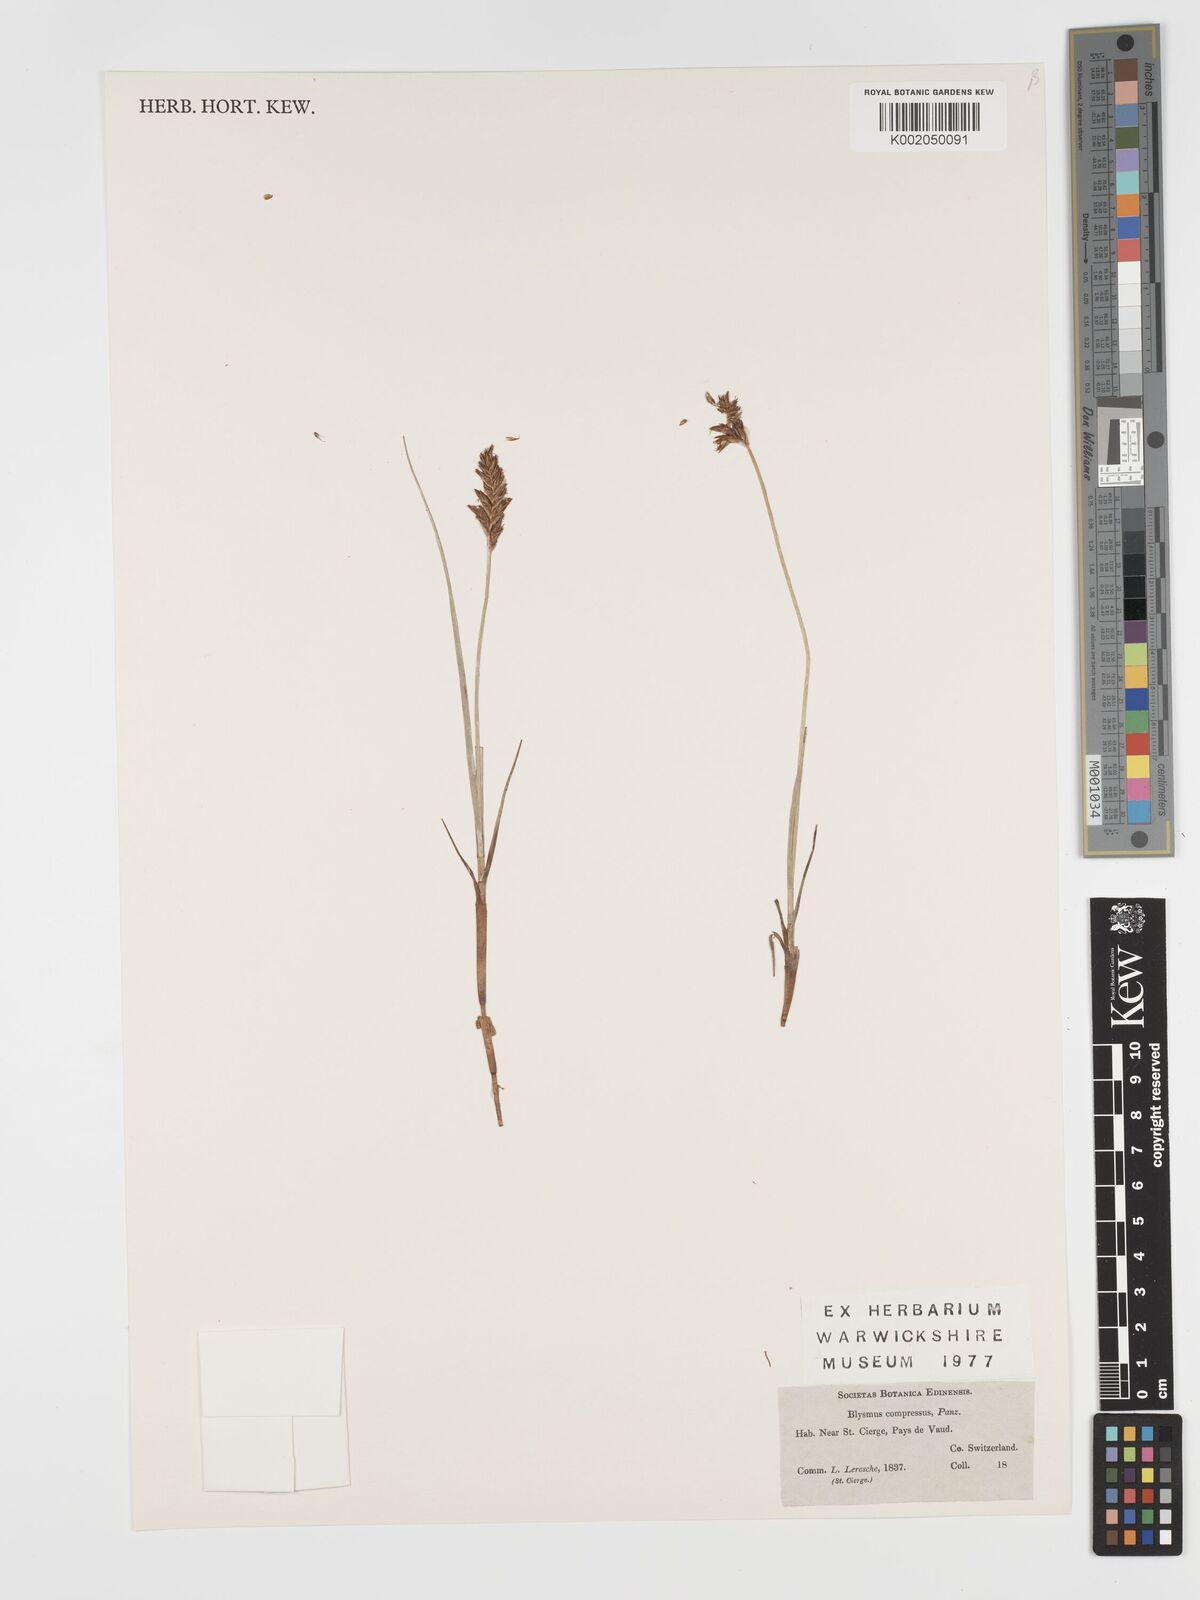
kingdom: Plantae
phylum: Tracheophyta
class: Liliopsida
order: Poales
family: Cyperaceae
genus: Blysmus
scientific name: Blysmus compressus
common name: Flat-sedge
